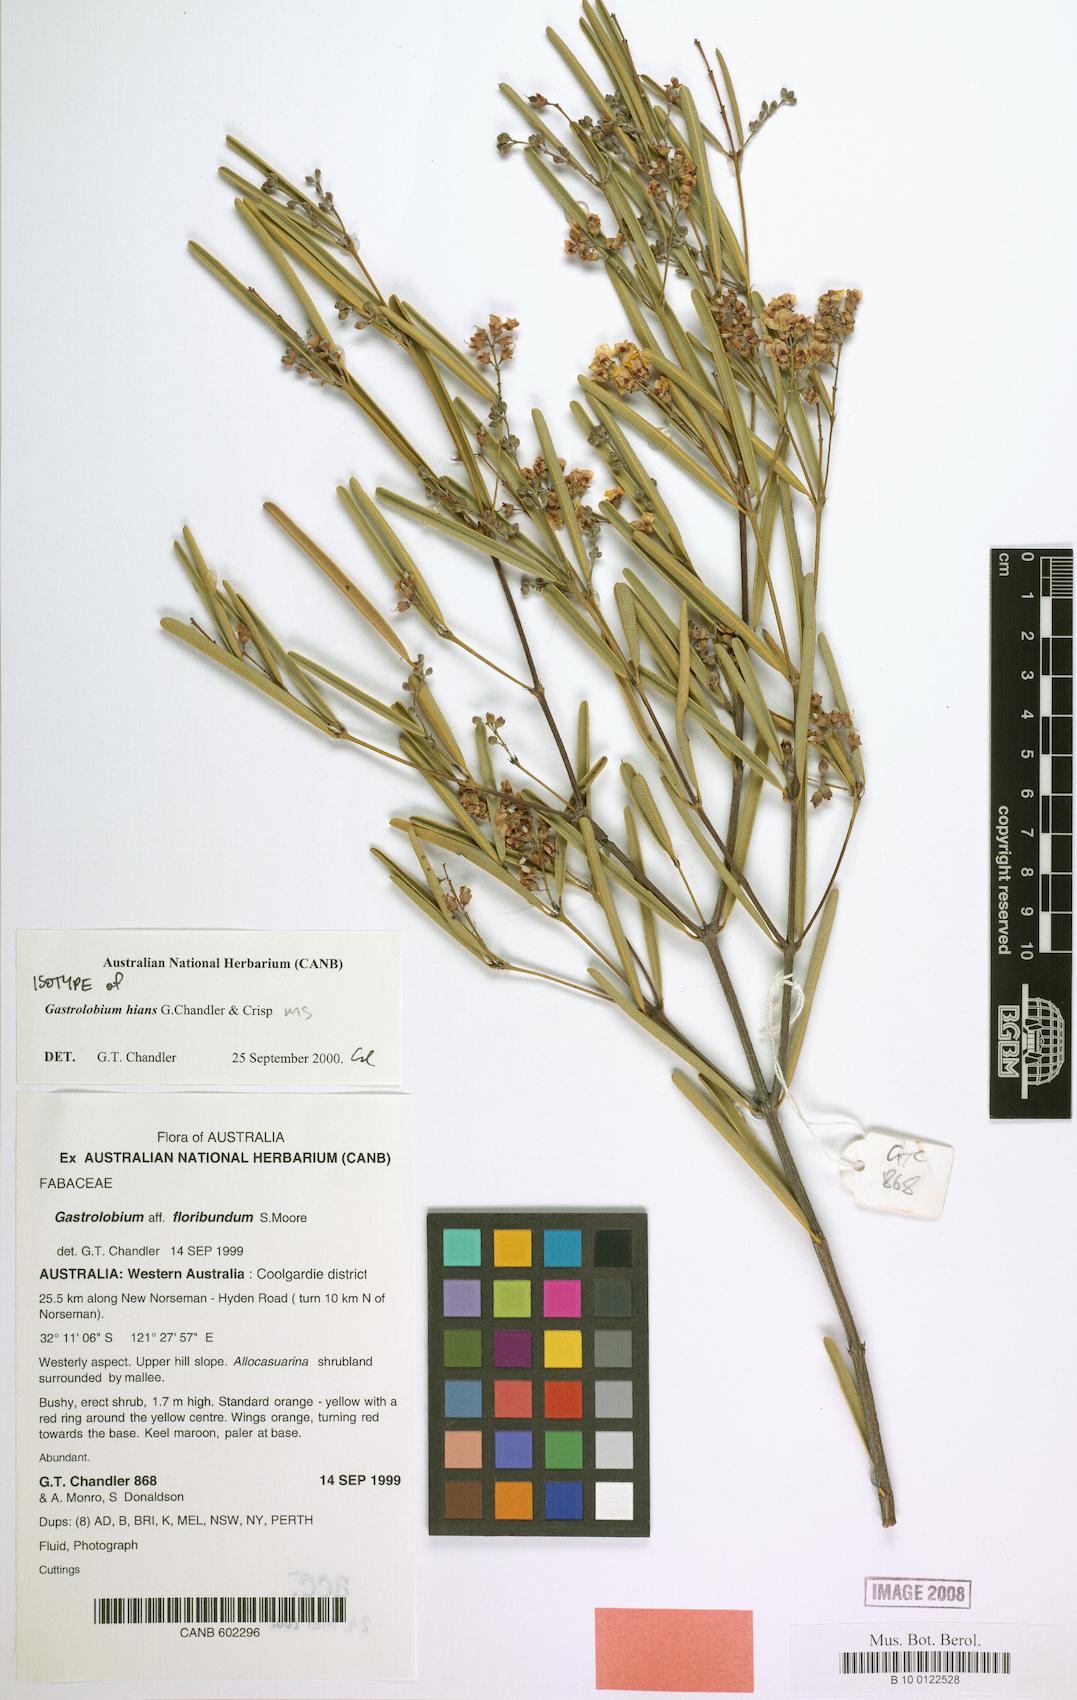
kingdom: Plantae
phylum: Tracheophyta
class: Magnoliopsida
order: Fabales
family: Fabaceae
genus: Gastrolobium
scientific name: Gastrolobium hians
